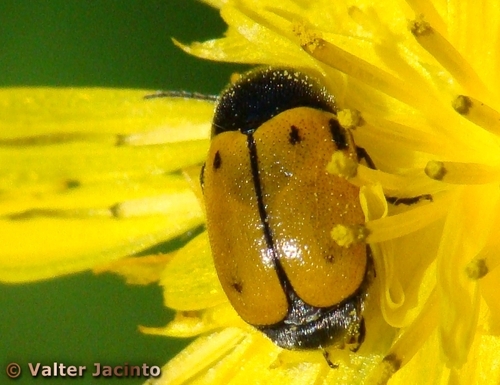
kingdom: Animalia
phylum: Arthropoda
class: Insecta
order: Coleoptera
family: Chrysomelidae
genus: Cryptocephalus
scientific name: Cryptocephalus rugicollis
